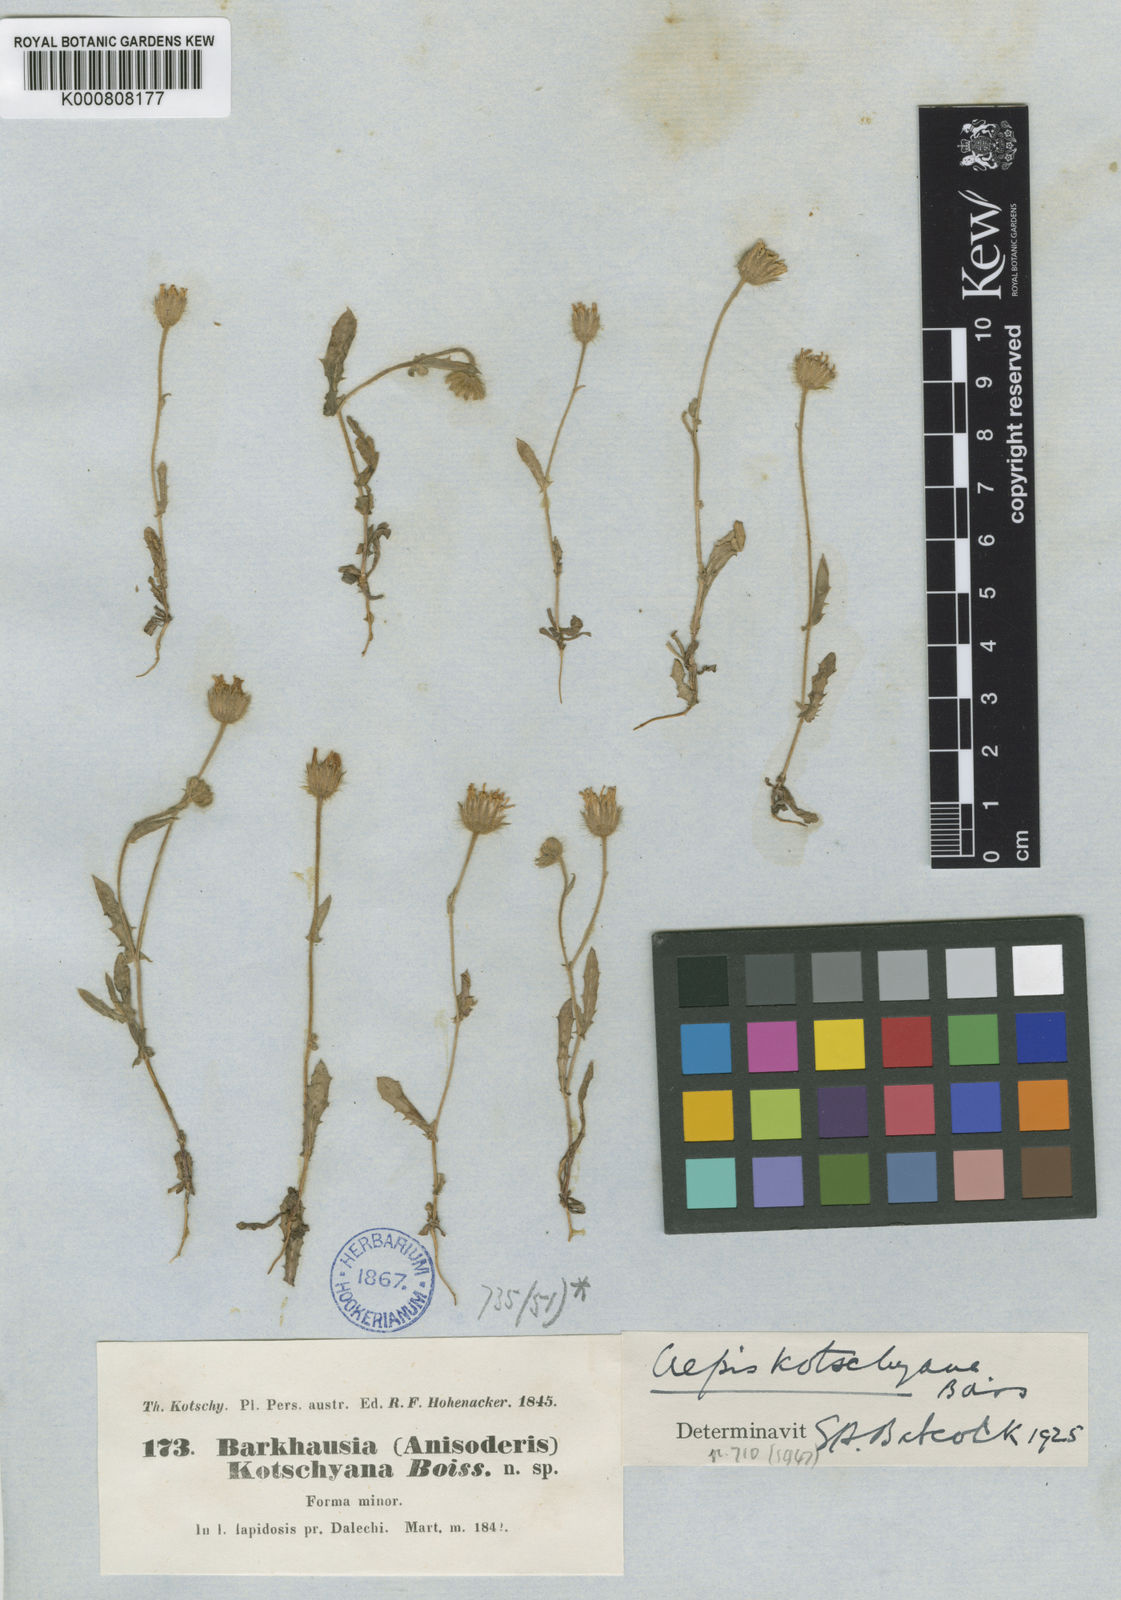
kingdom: Plantae
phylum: Tracheophyta
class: Magnoliopsida
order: Asterales
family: Asteraceae
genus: Crepis
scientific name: Crepis kotschyana
